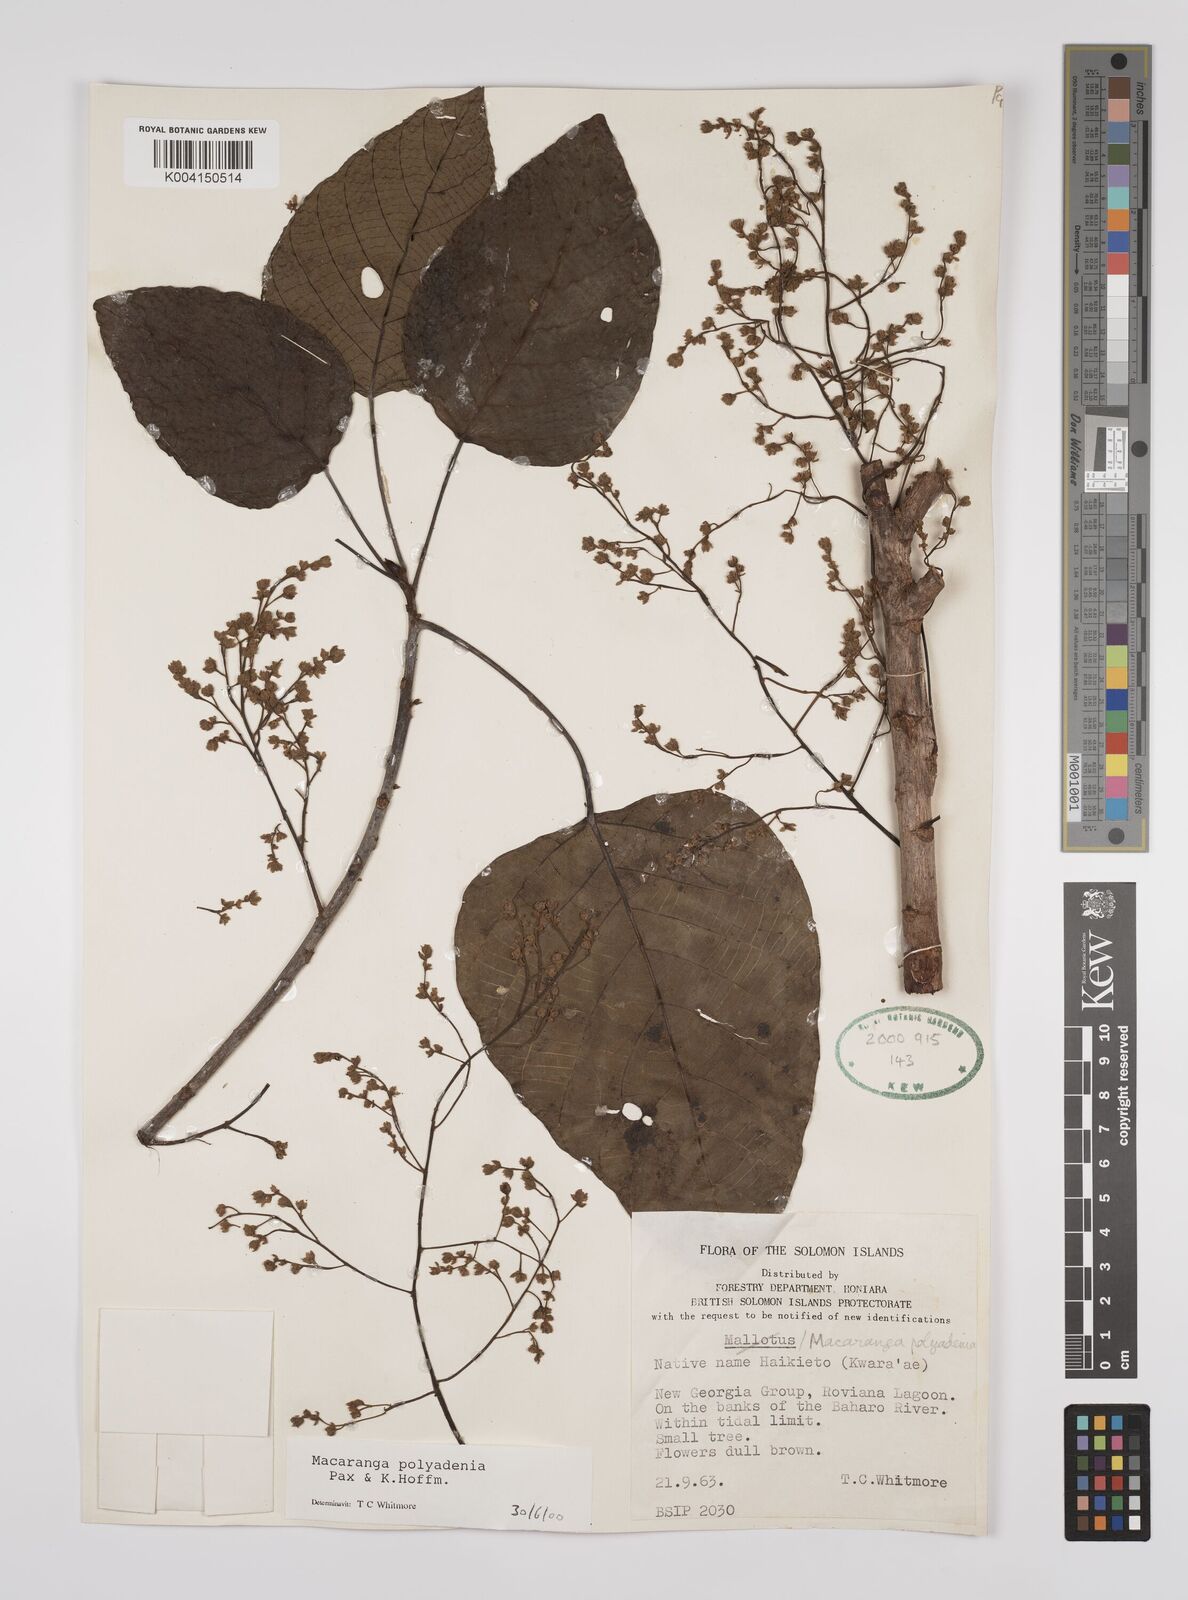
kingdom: Plantae
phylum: Tracheophyta
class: Magnoliopsida
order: Malpighiales
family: Euphorbiaceae
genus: Macaranga
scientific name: Macaranga polyadenia
